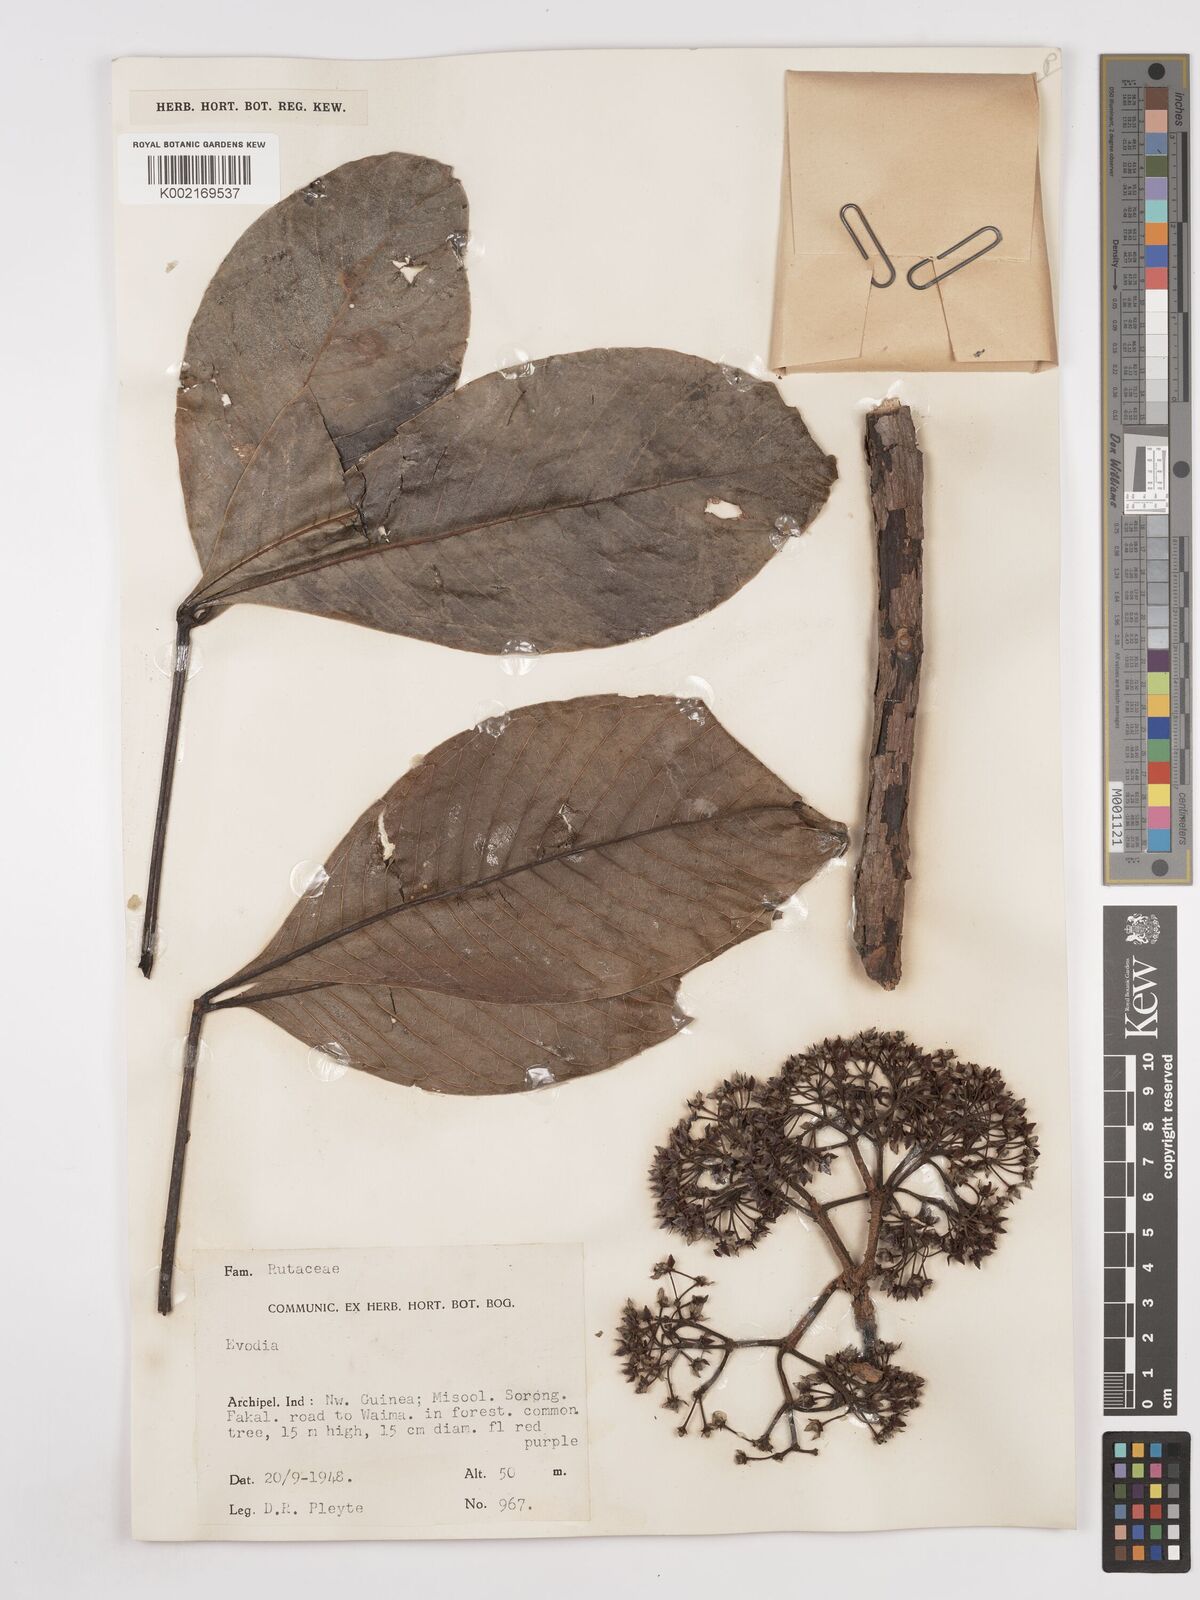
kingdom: Plantae
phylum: Tracheophyta
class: Magnoliopsida
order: Sapindales
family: Rutaceae
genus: Euodia
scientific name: Euodia
